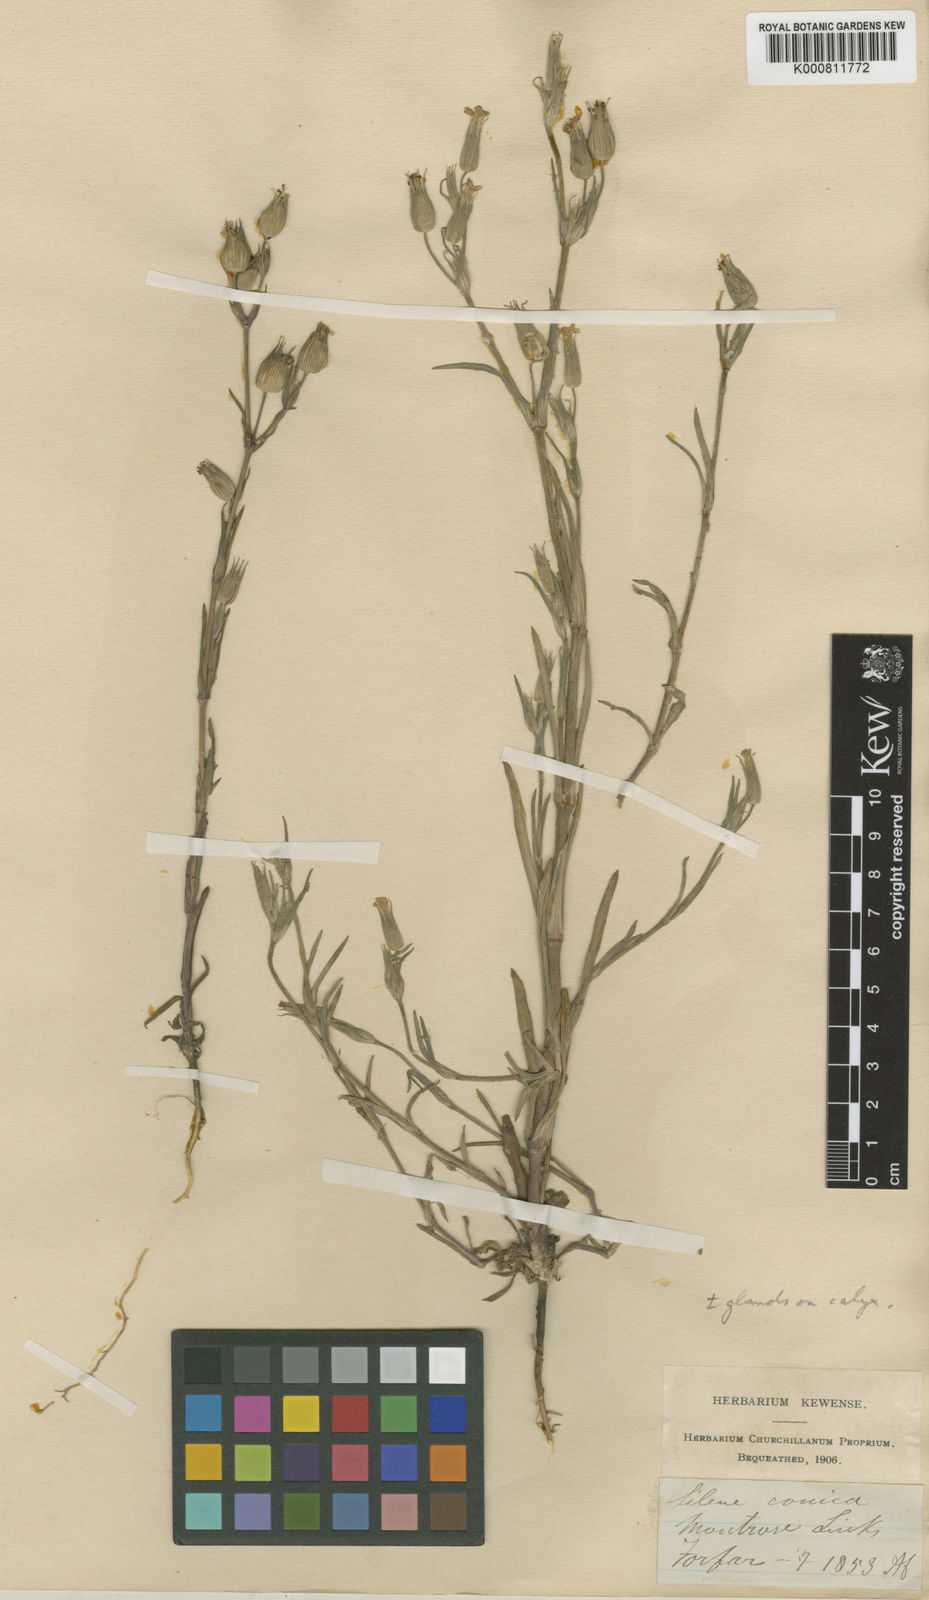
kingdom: Plantae
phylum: Tracheophyta
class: Magnoliopsida
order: Caryophyllales
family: Caryophyllaceae
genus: Silene
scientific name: Silene conica
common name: Sand catchfly
